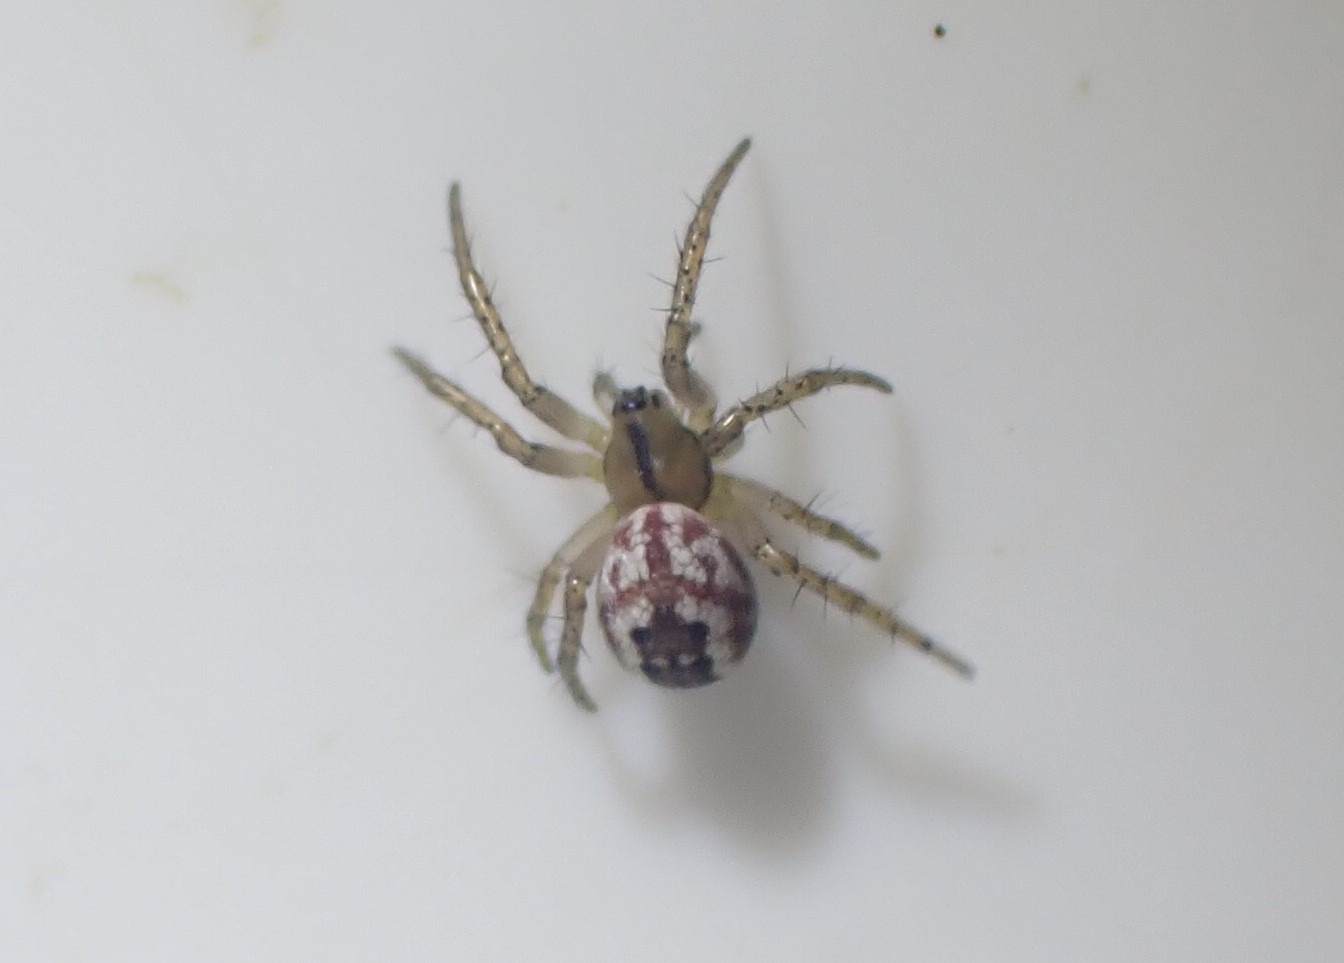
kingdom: Animalia
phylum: Arthropoda
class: Arachnida
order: Araneae
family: Araneidae
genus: Mangora
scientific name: Mangora acalypha
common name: Sortstribet hedehjulspinder
